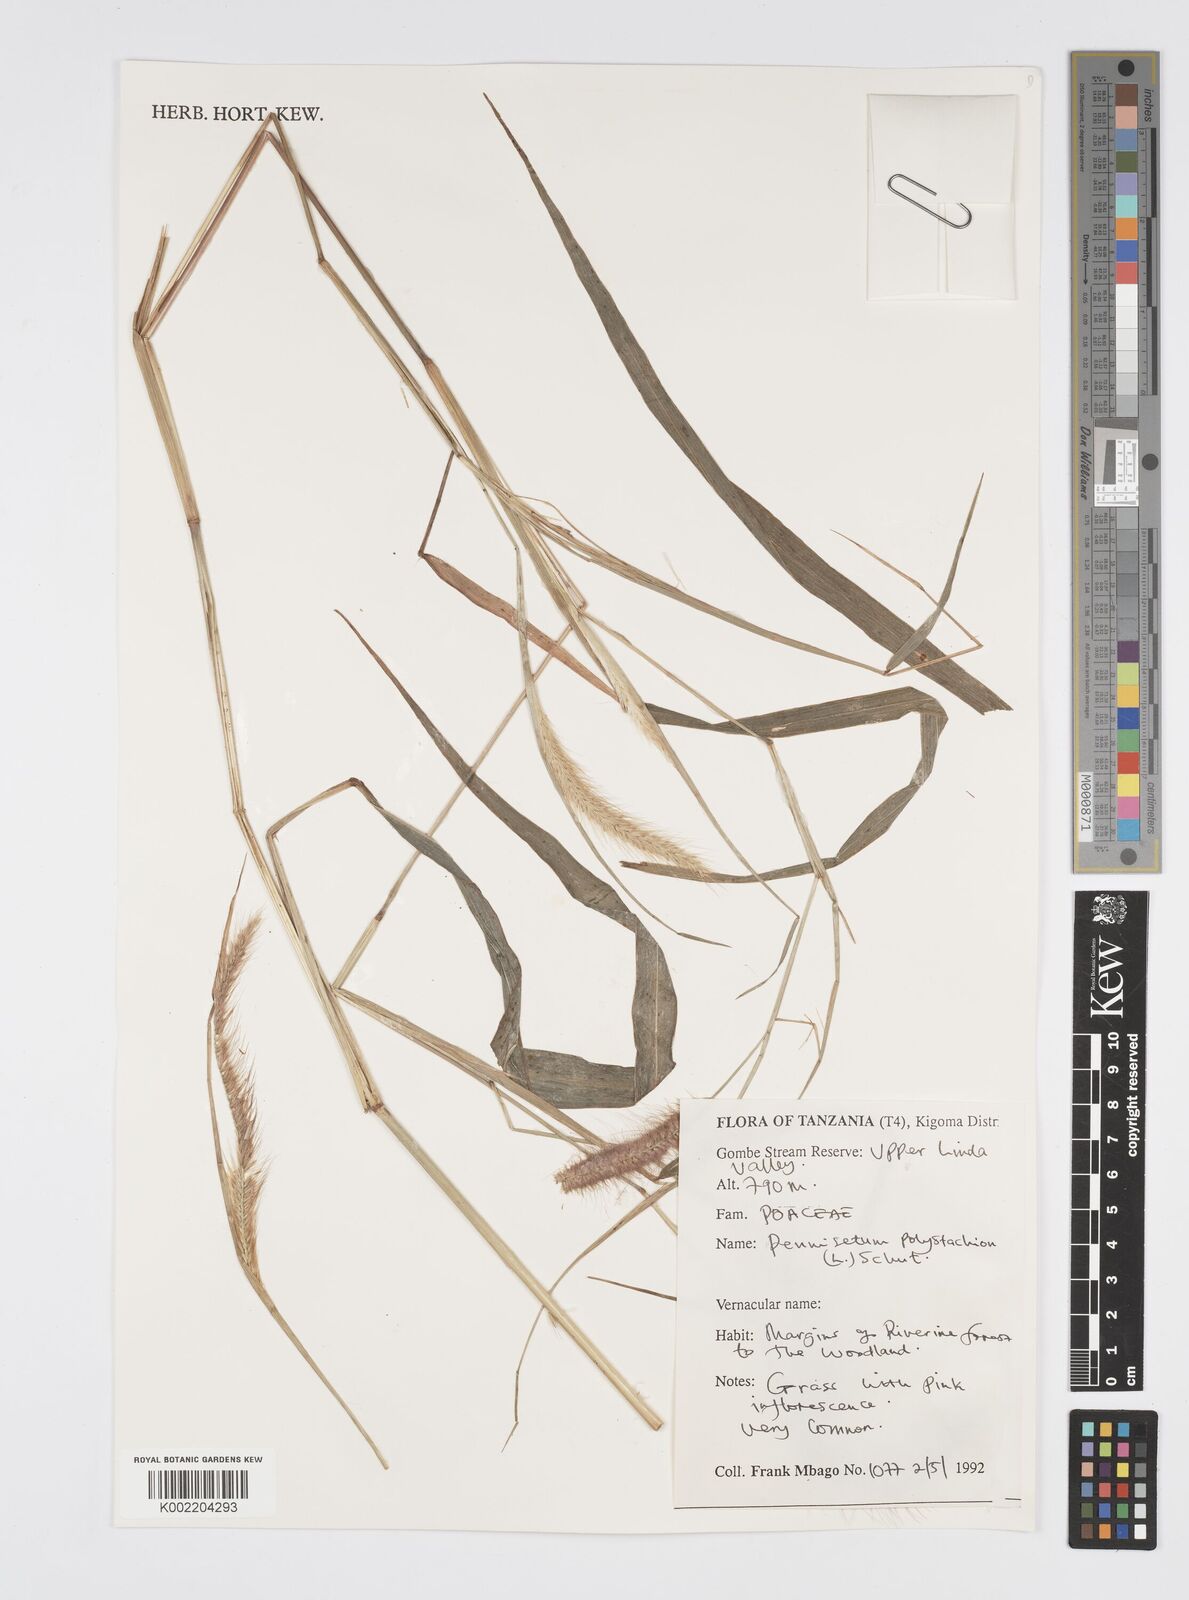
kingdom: Plantae
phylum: Tracheophyta
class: Liliopsida
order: Poales
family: Poaceae
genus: Setaria
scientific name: Setaria parviflora
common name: Knotroot bristle-grass
